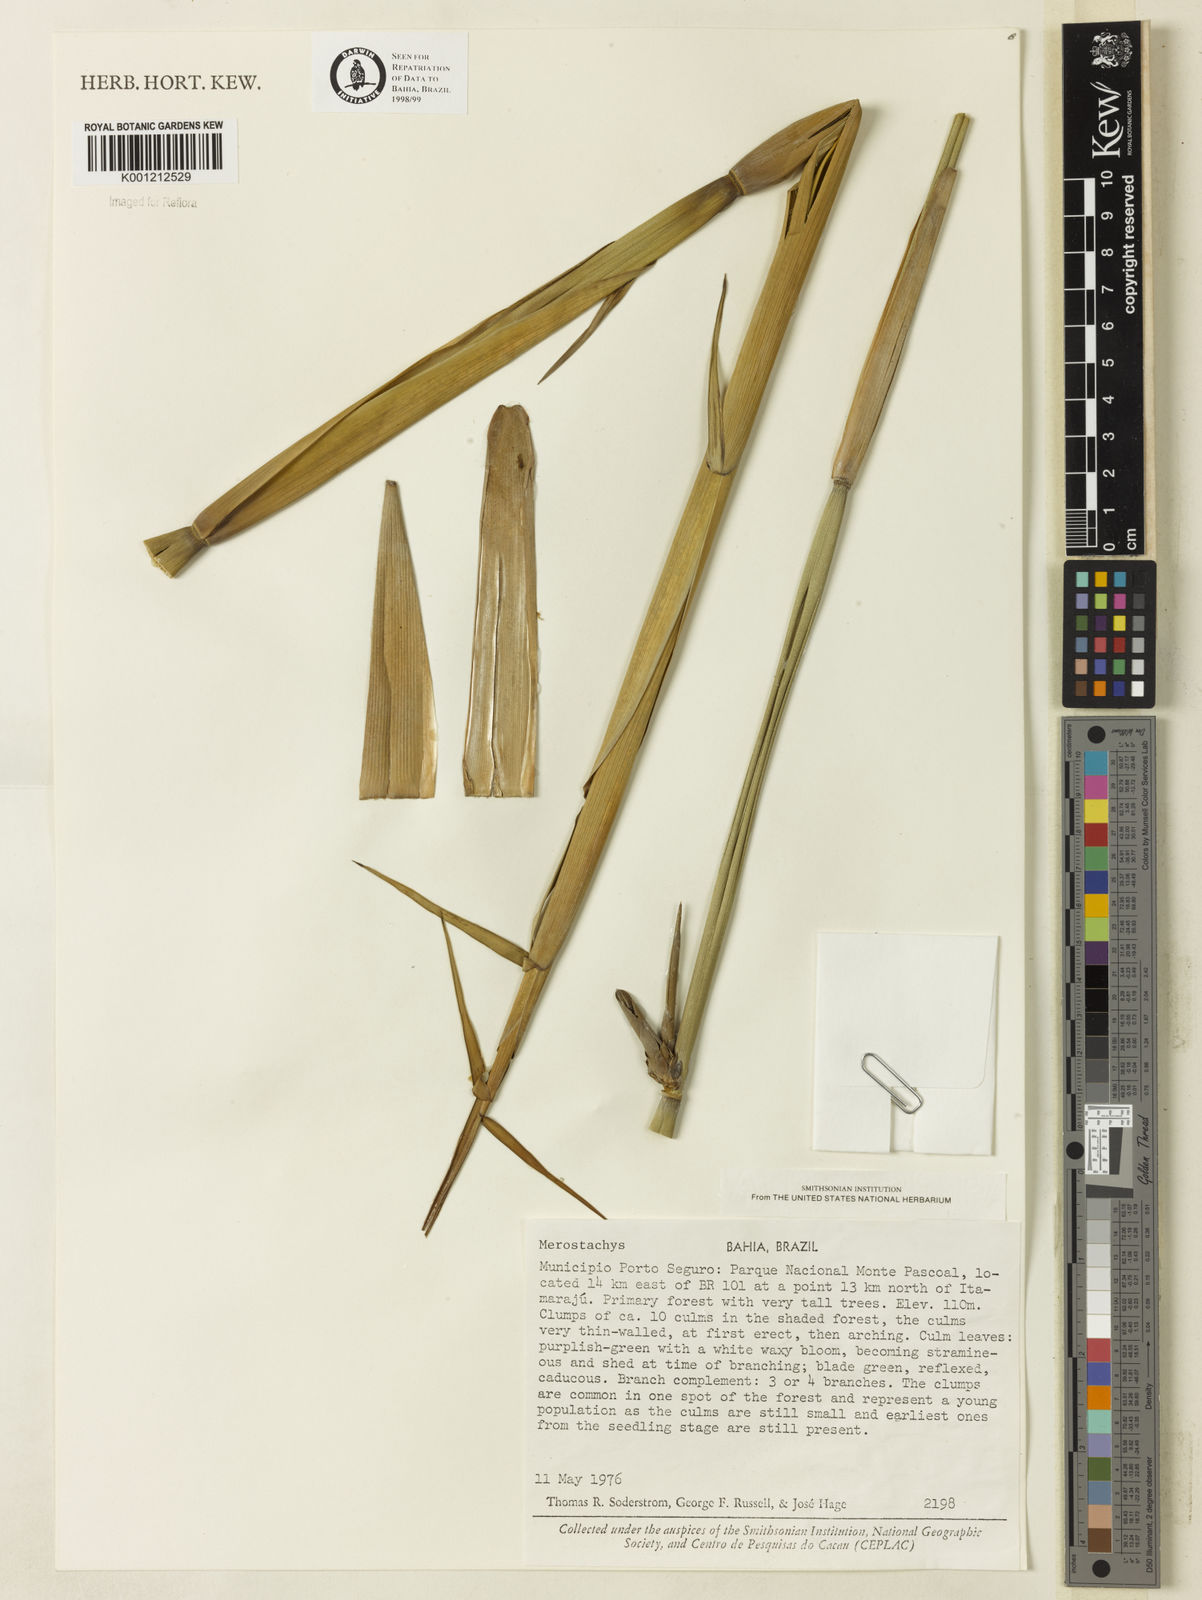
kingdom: Plantae
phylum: Tracheophyta
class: Liliopsida
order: Poales
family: Poaceae
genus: Merostachys
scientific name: Merostachys procerrima
